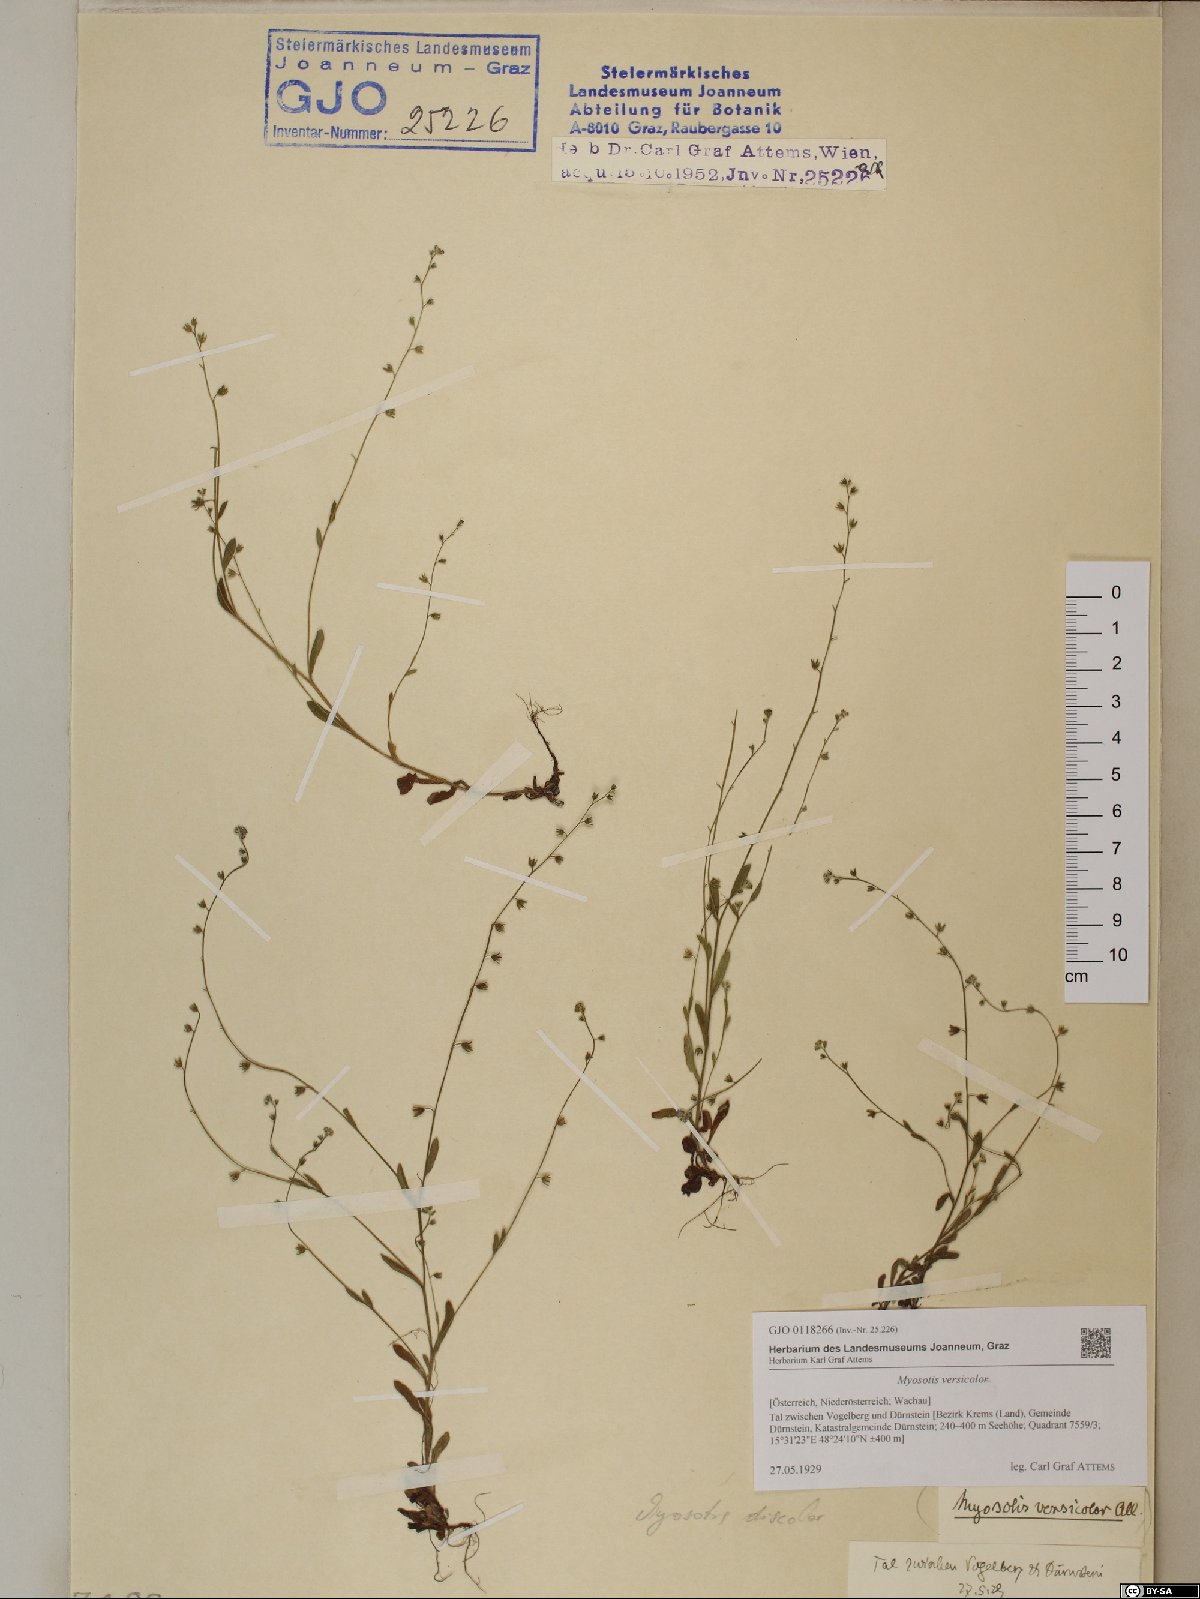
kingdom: Plantae
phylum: Tracheophyta
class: Magnoliopsida
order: Boraginales
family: Boraginaceae
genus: Myosotis
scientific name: Myosotis discolor
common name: Changing forget-me-not
